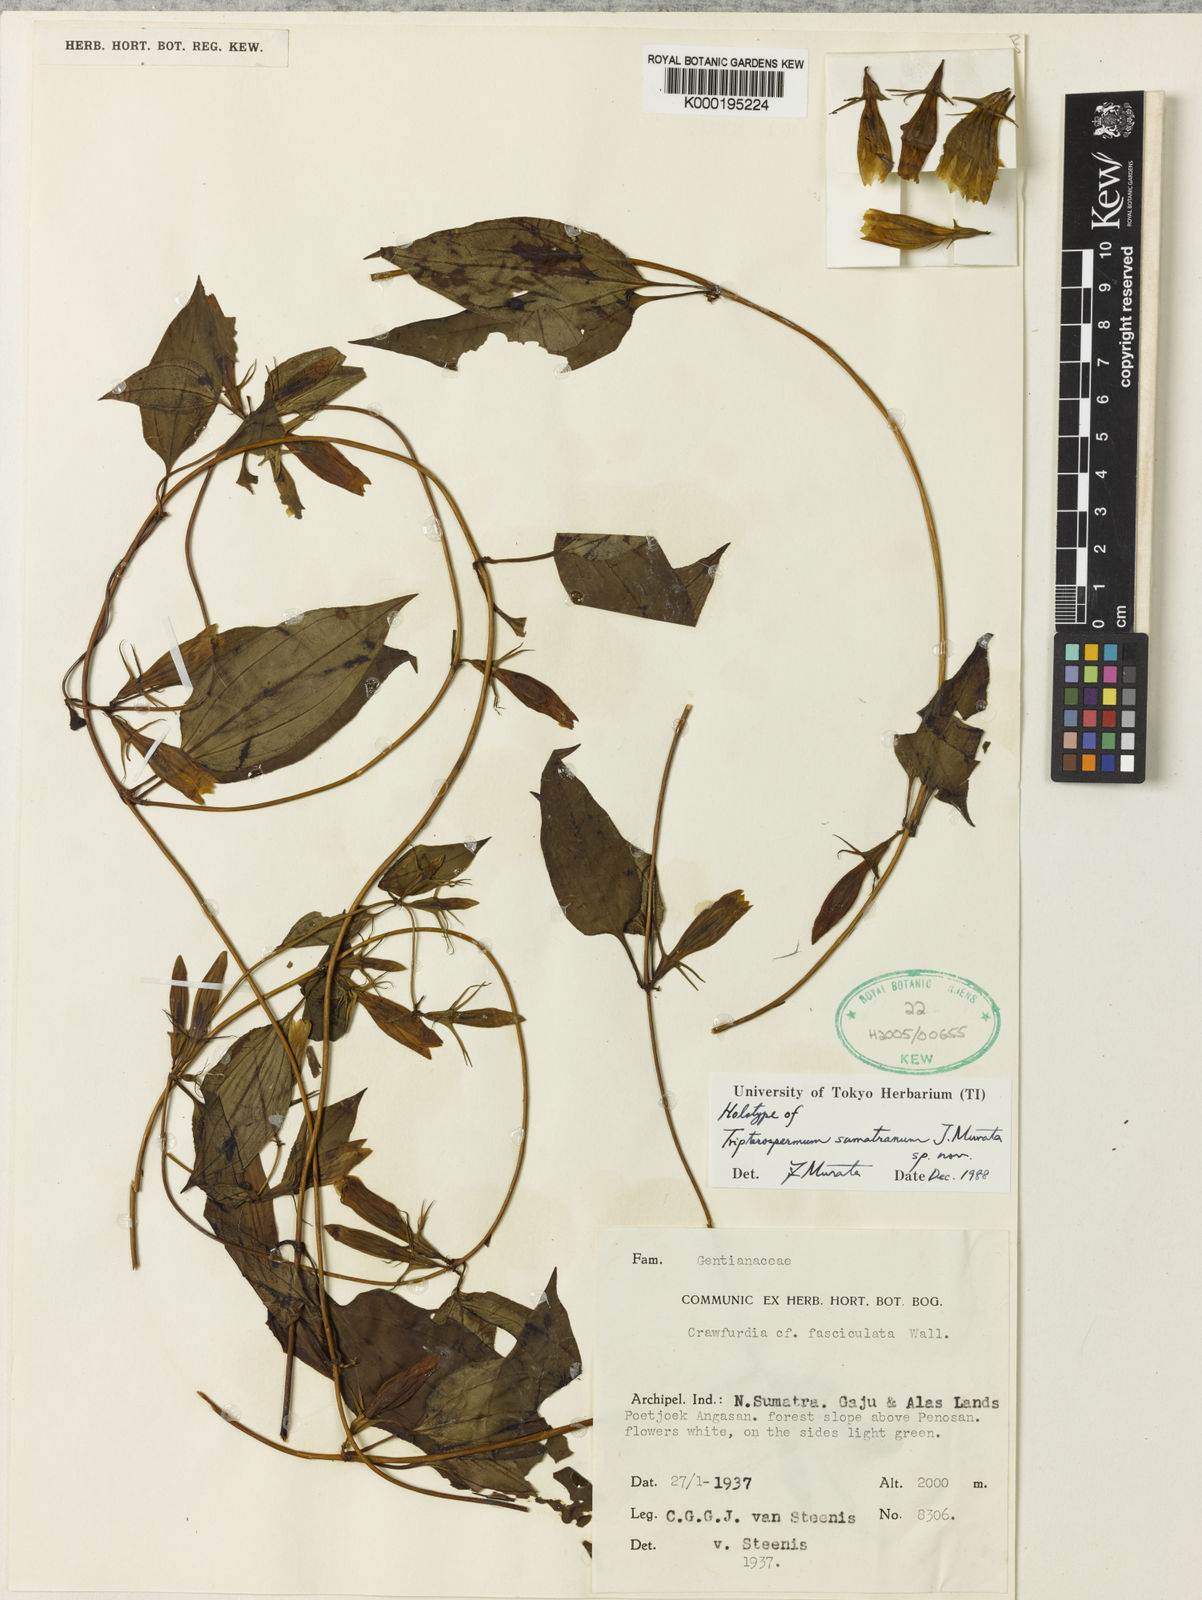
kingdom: Plantae
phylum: Tracheophyta
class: Magnoliopsida
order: Gentianales
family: Gentianaceae
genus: Tripterospermum
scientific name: Tripterospermum sumatranum
